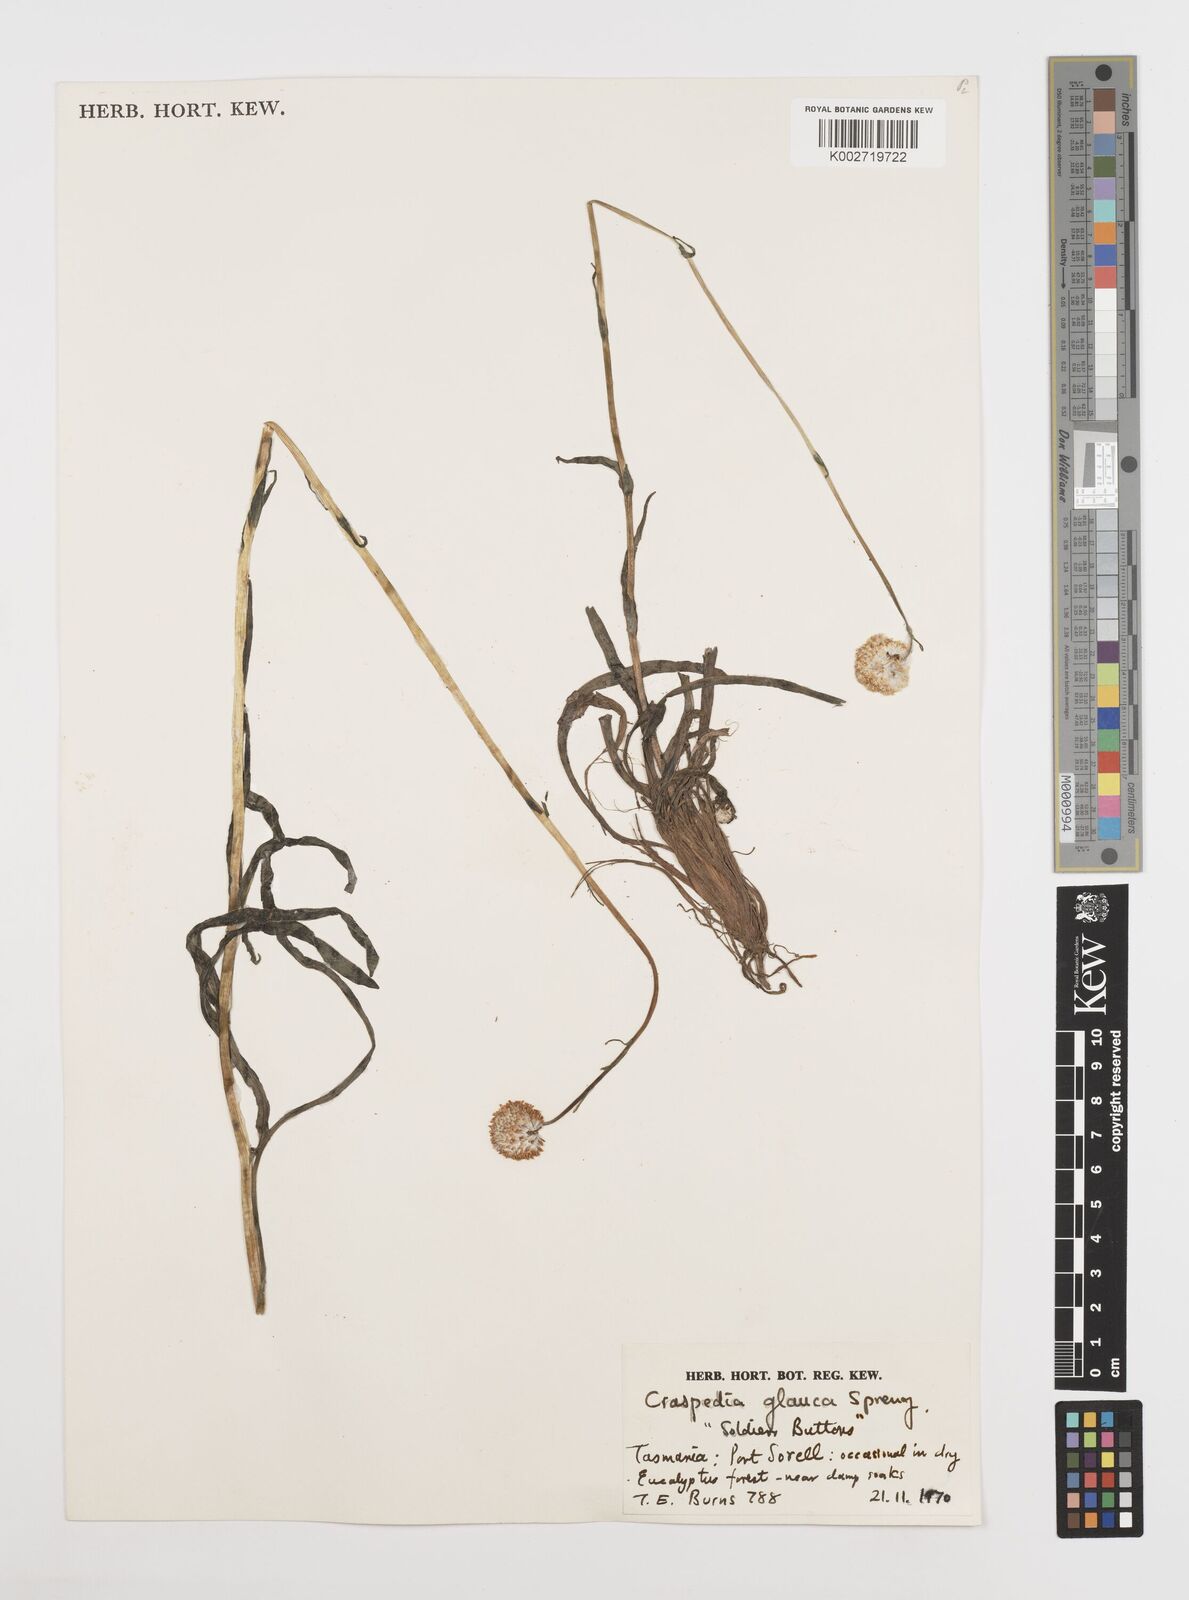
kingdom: Plantae
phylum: Tracheophyta
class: Magnoliopsida
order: Asterales
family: Asteraceae
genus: Craspedia
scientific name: Craspedia glauca
